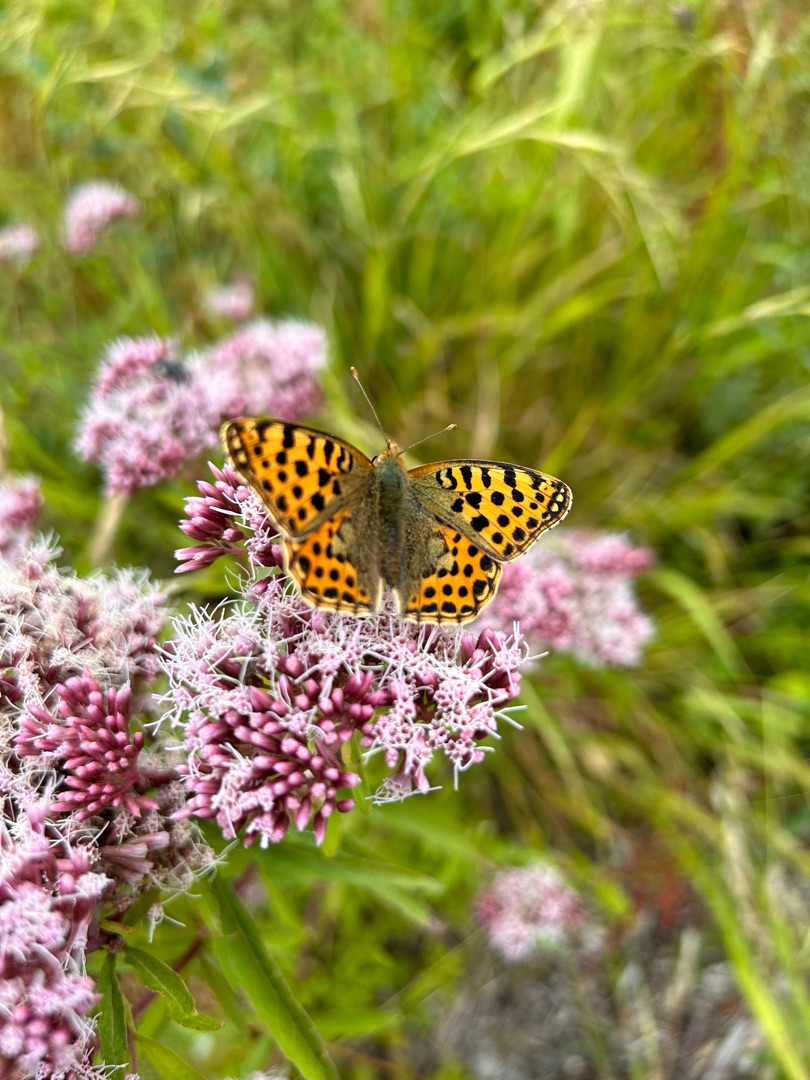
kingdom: Animalia
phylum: Arthropoda
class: Insecta
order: Lepidoptera
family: Nymphalidae
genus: Issoria
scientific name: Issoria lathonia
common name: Storplettet perlemorsommerfugl
